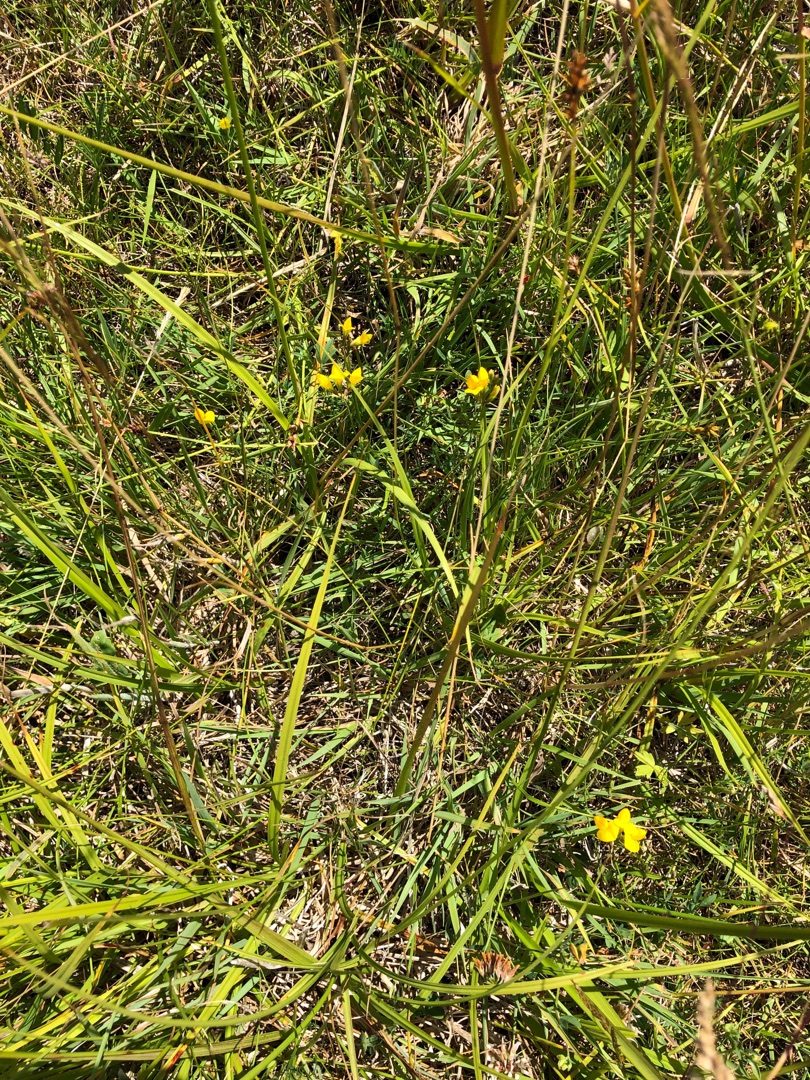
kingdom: Plantae
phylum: Tracheophyta
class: Magnoliopsida
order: Fabales
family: Fabaceae
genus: Lotus
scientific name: Lotus tenuis
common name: Smalbladet kællingetand
